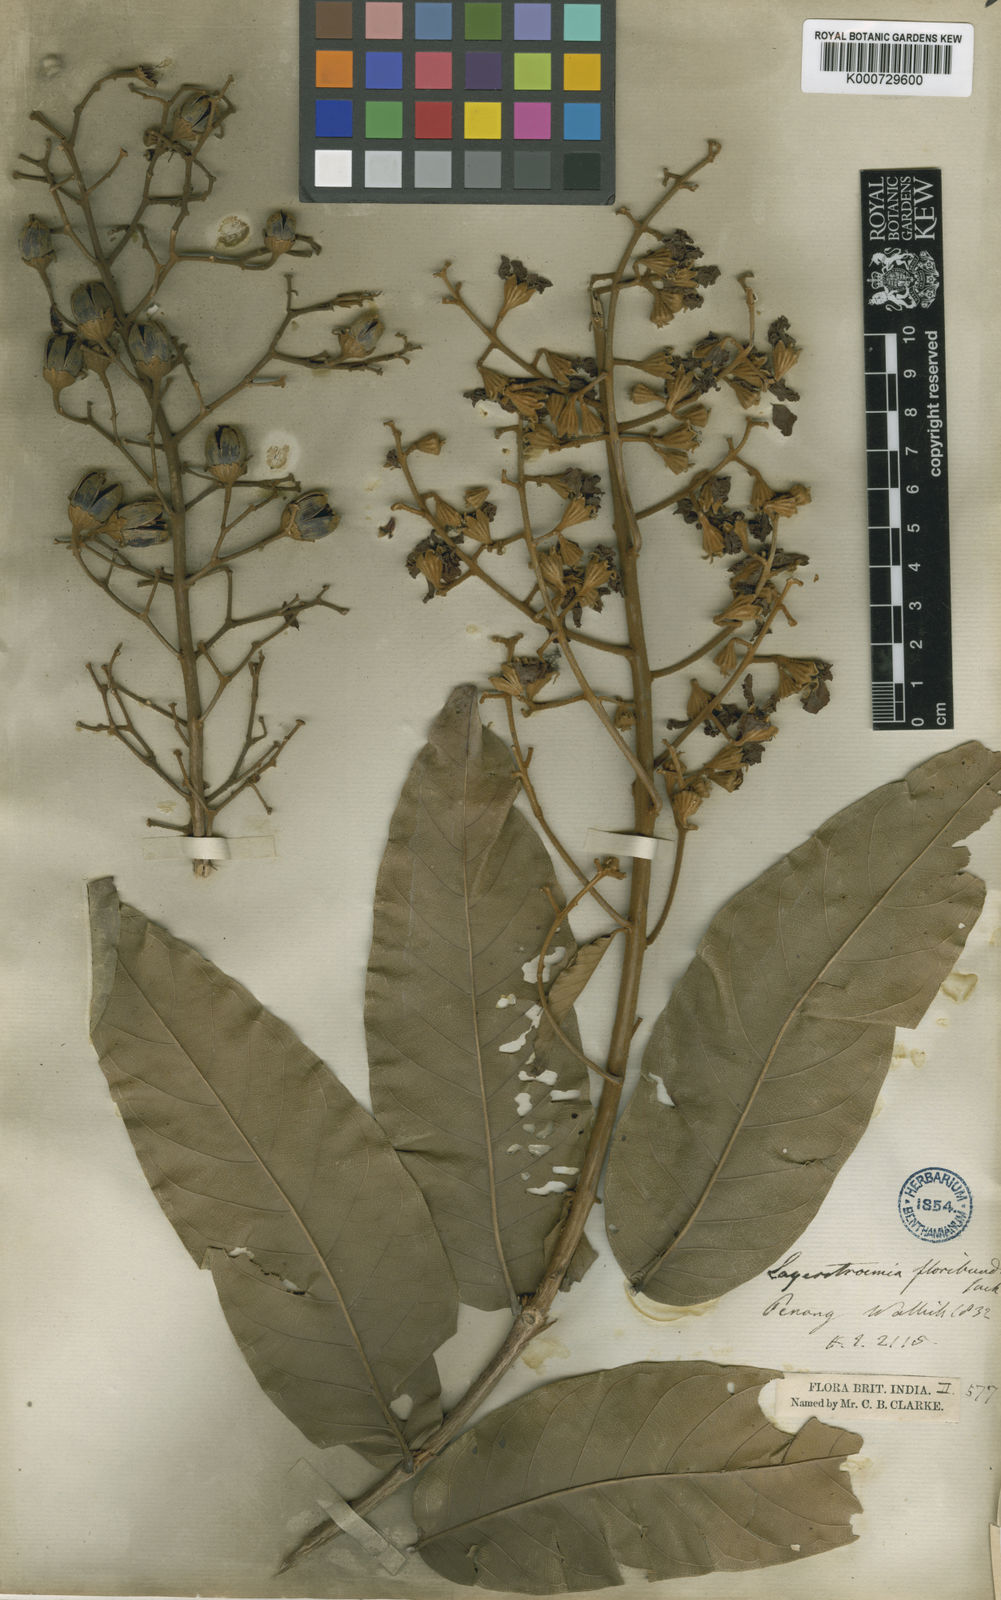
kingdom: Plantae
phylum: Tracheophyta
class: Magnoliopsida
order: Myrtales
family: Lythraceae
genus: Lagerstroemia
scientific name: Lagerstroemia floribunda
